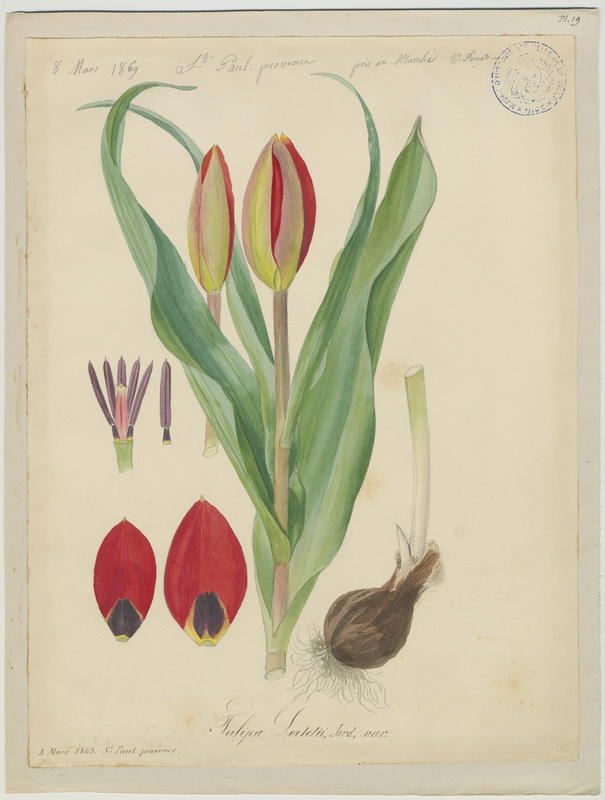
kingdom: Plantae
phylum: Tracheophyta
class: Liliopsida
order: Liliales
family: Liliaceae
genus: Tulipa
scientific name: Tulipa agenensis
